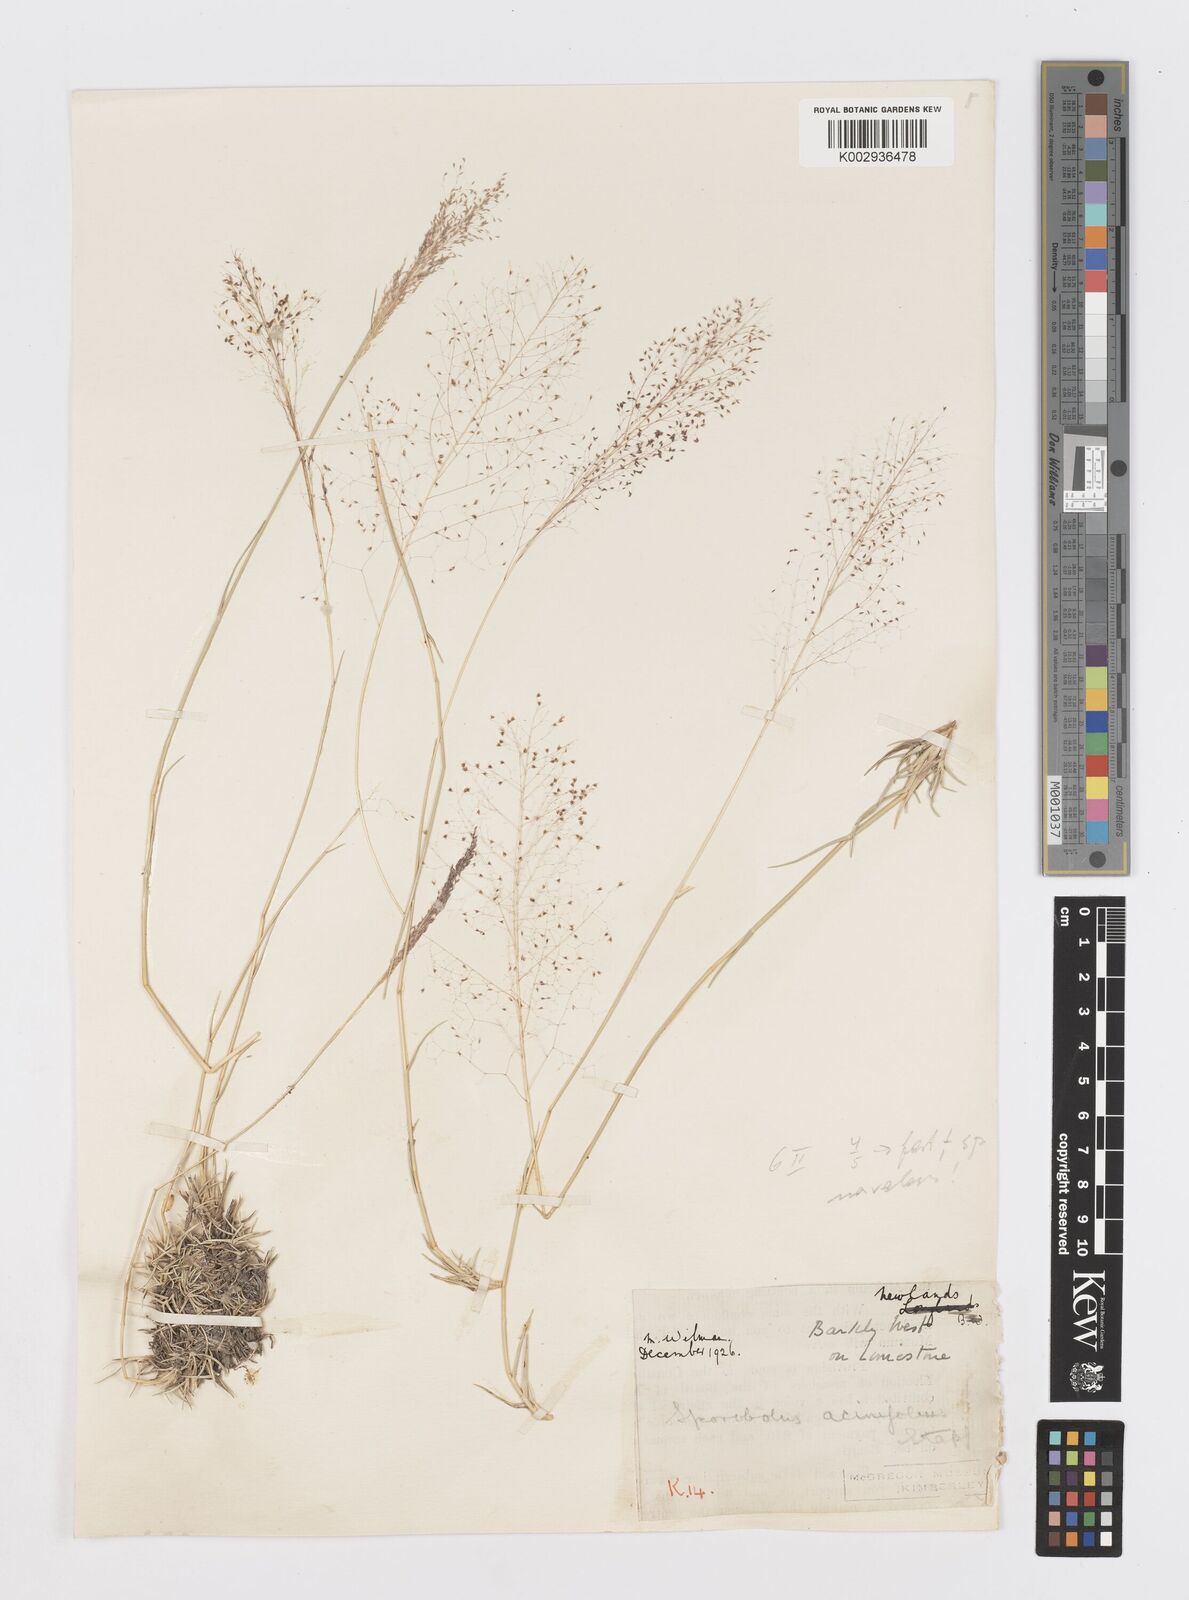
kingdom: Plantae
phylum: Tracheophyta
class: Liliopsida
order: Poales
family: Poaceae
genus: Sporobolus
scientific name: Sporobolus acinifolius
